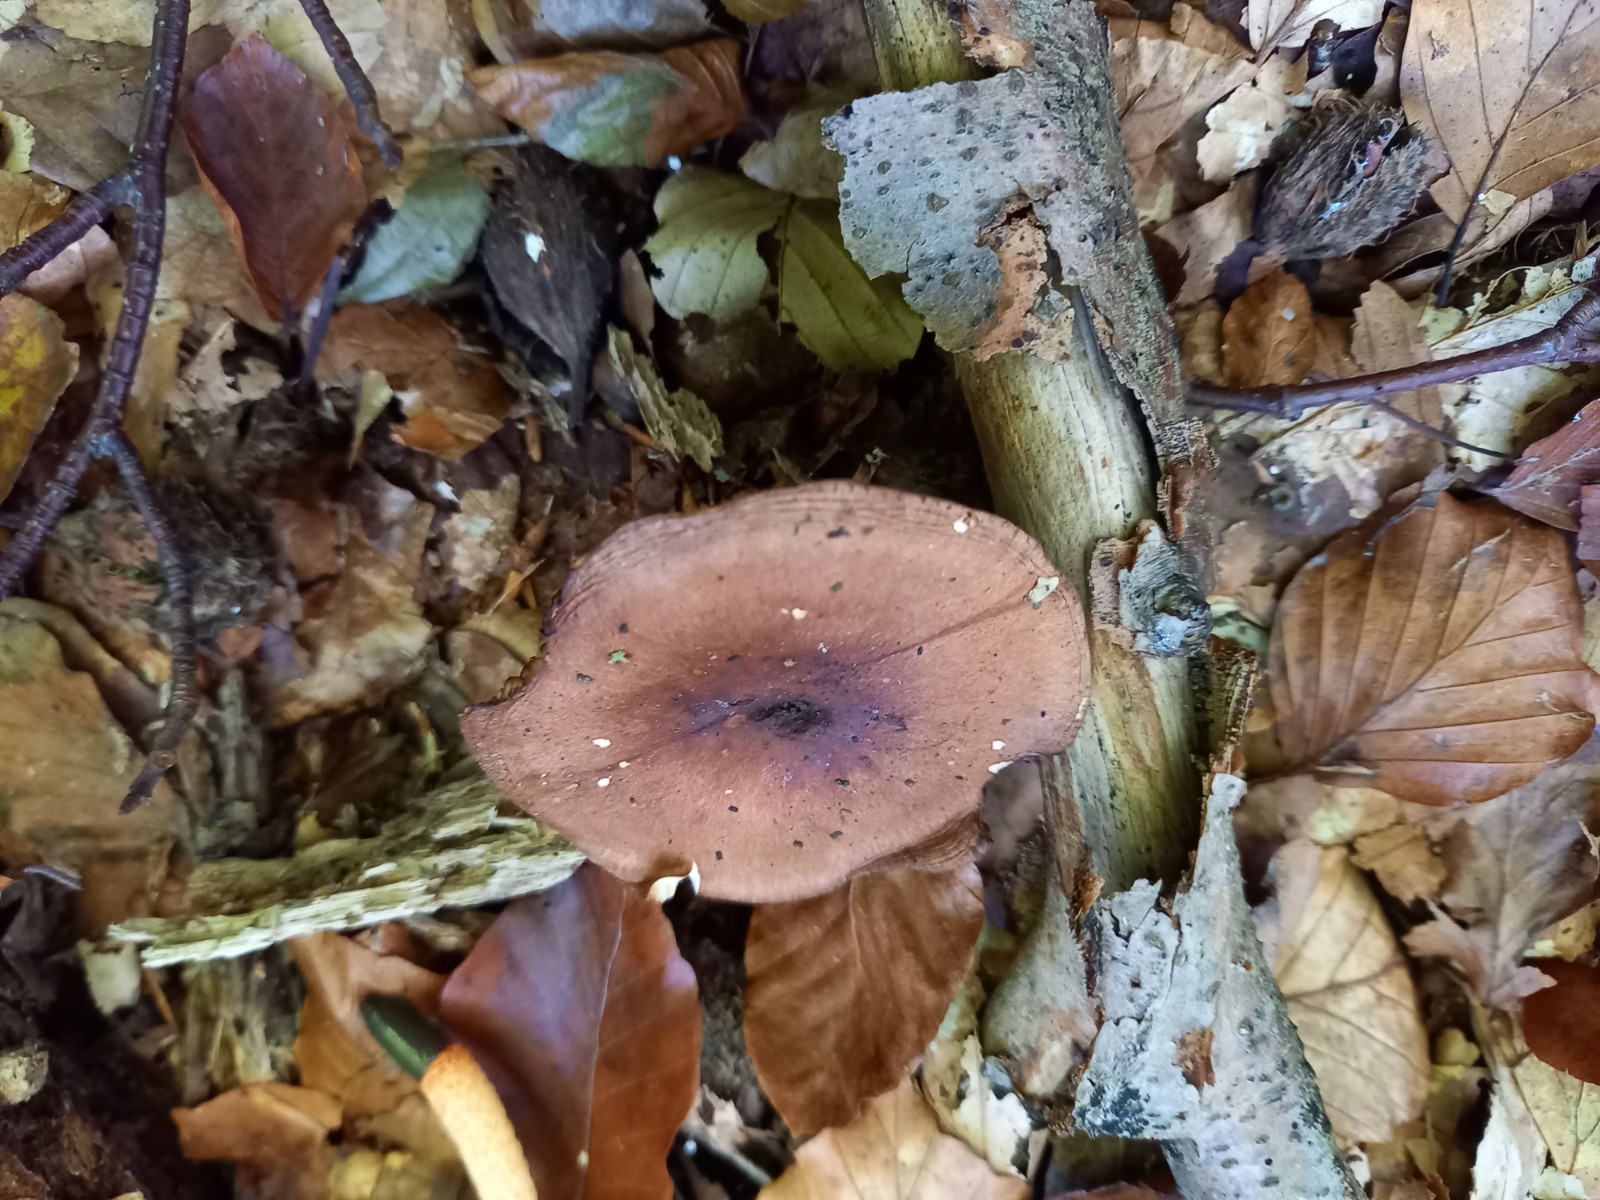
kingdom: Fungi
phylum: Basidiomycota
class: Agaricomycetes
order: Agaricales
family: Tricholomataceae
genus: Tricholoma
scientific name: Tricholoma ustale
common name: sveden ridderhat
